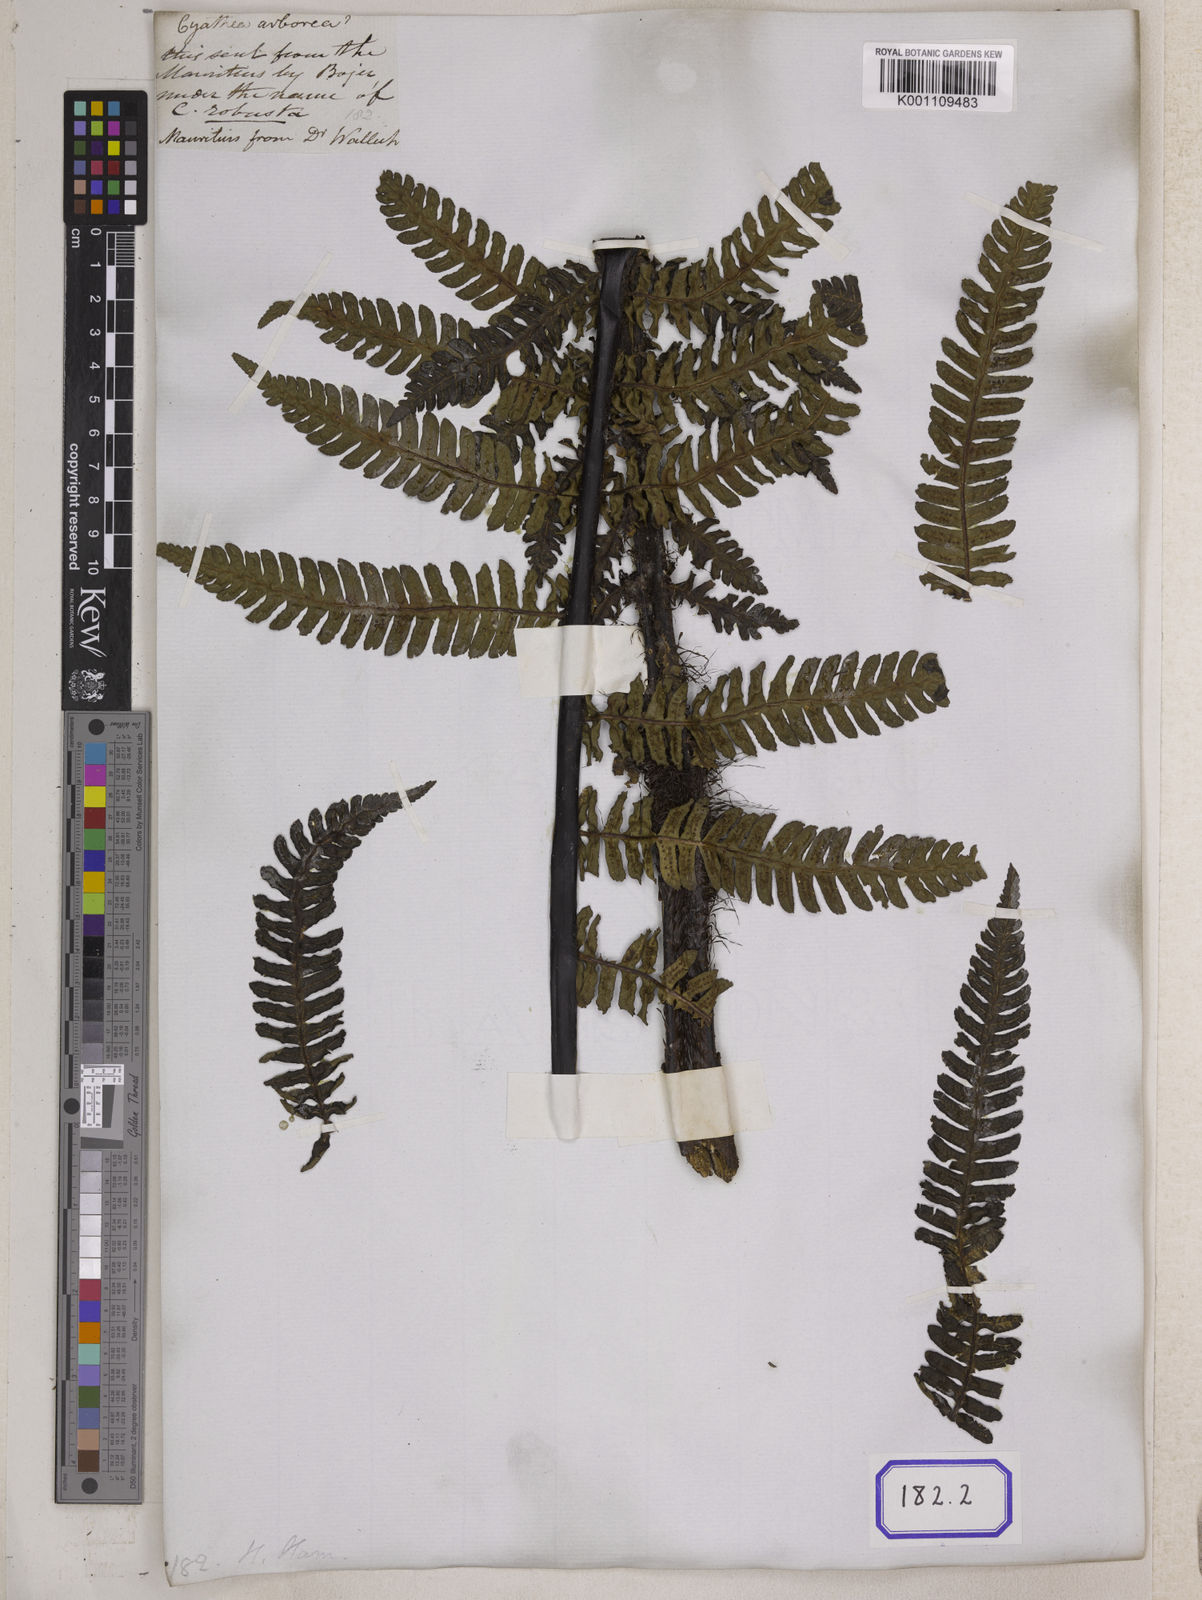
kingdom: Plantae
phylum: Tracheophyta
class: Polypodiopsida
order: Cyatheales
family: Cyatheaceae
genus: Alsophila
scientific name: Alsophila borbonica
